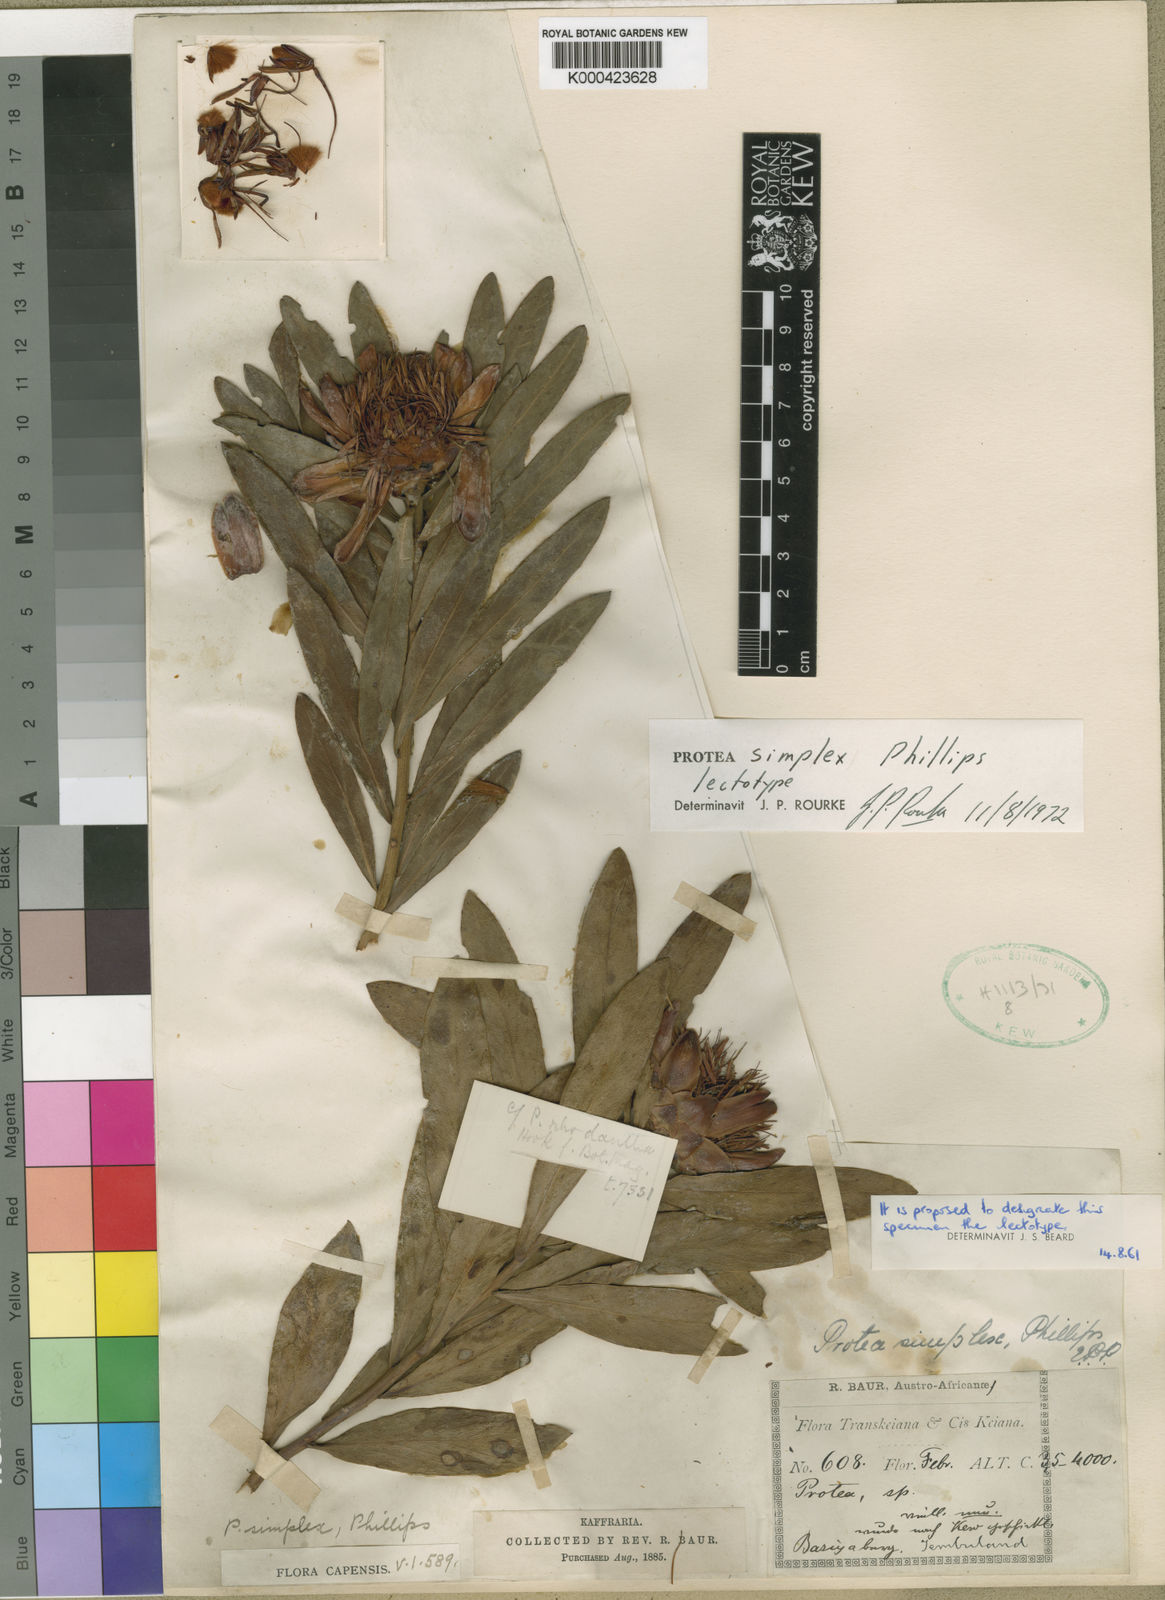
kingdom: Plantae
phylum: Tracheophyta
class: Magnoliopsida
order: Proteales
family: Proteaceae
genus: Protea
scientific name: Protea simplex
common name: Dwarf grassveld sugarbush
